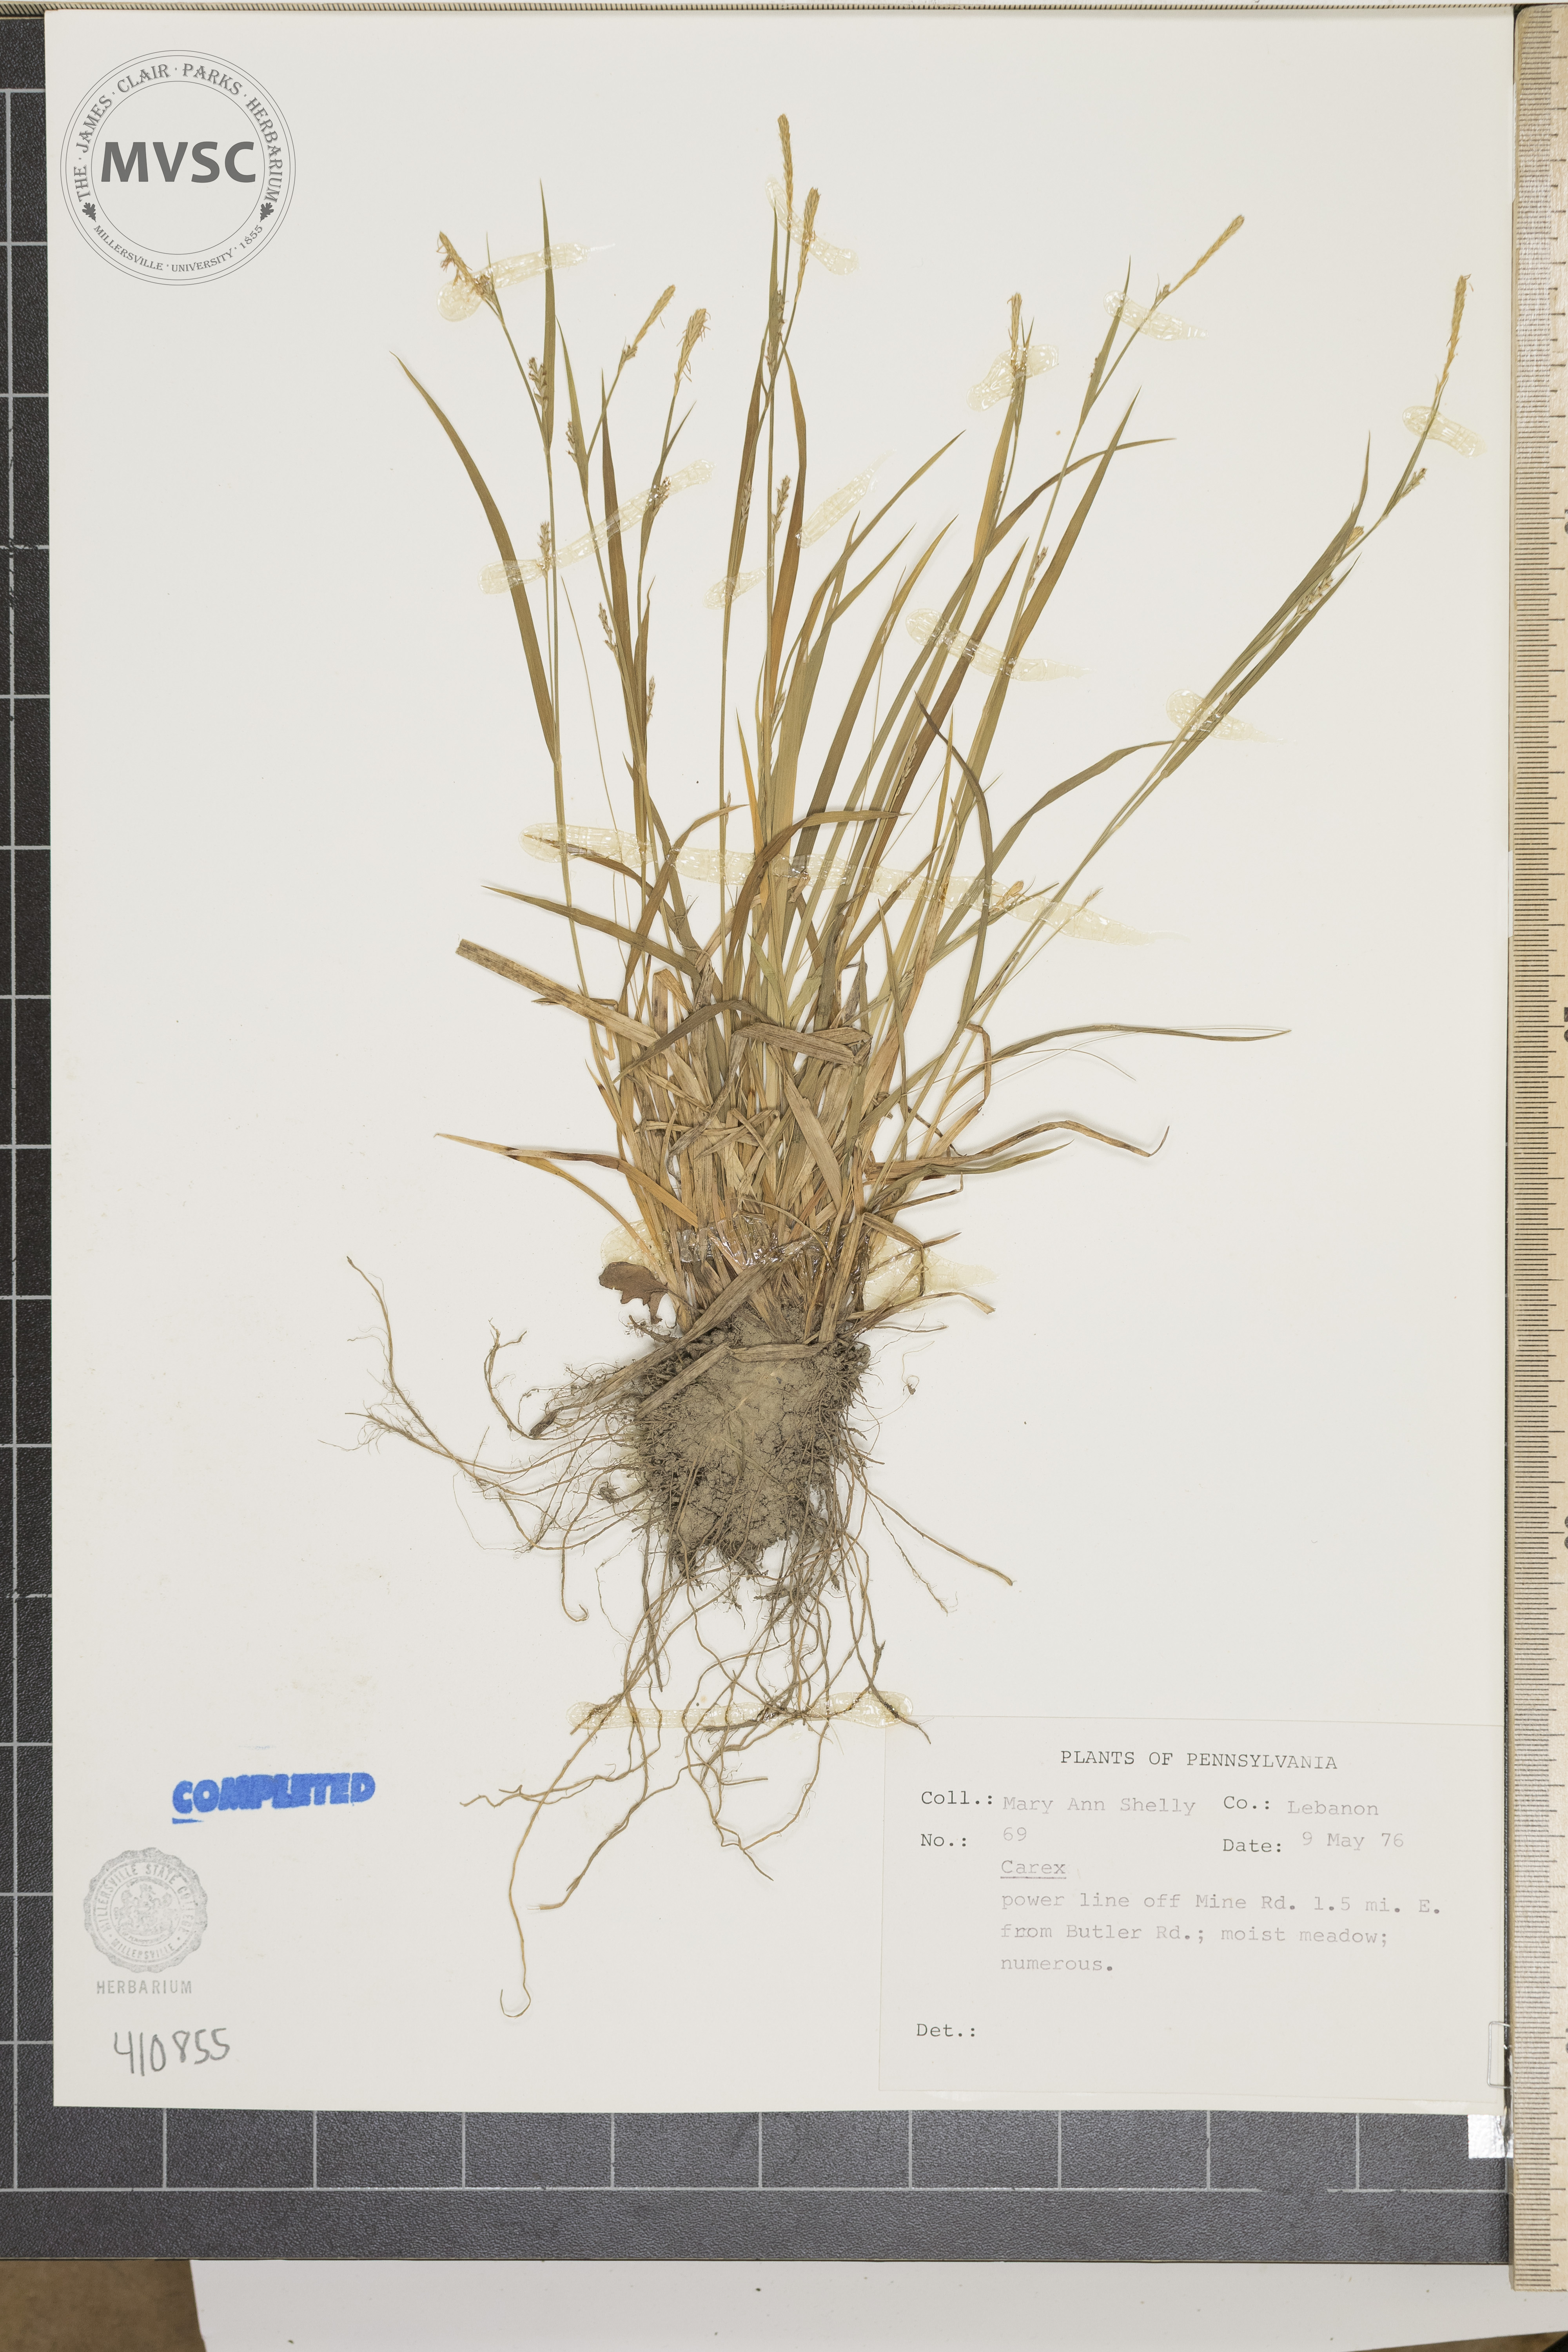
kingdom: Plantae
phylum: Tracheophyta
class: Liliopsida
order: Poales
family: Cyperaceae
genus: Carex
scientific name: Carex blanda
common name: Bland sedge
